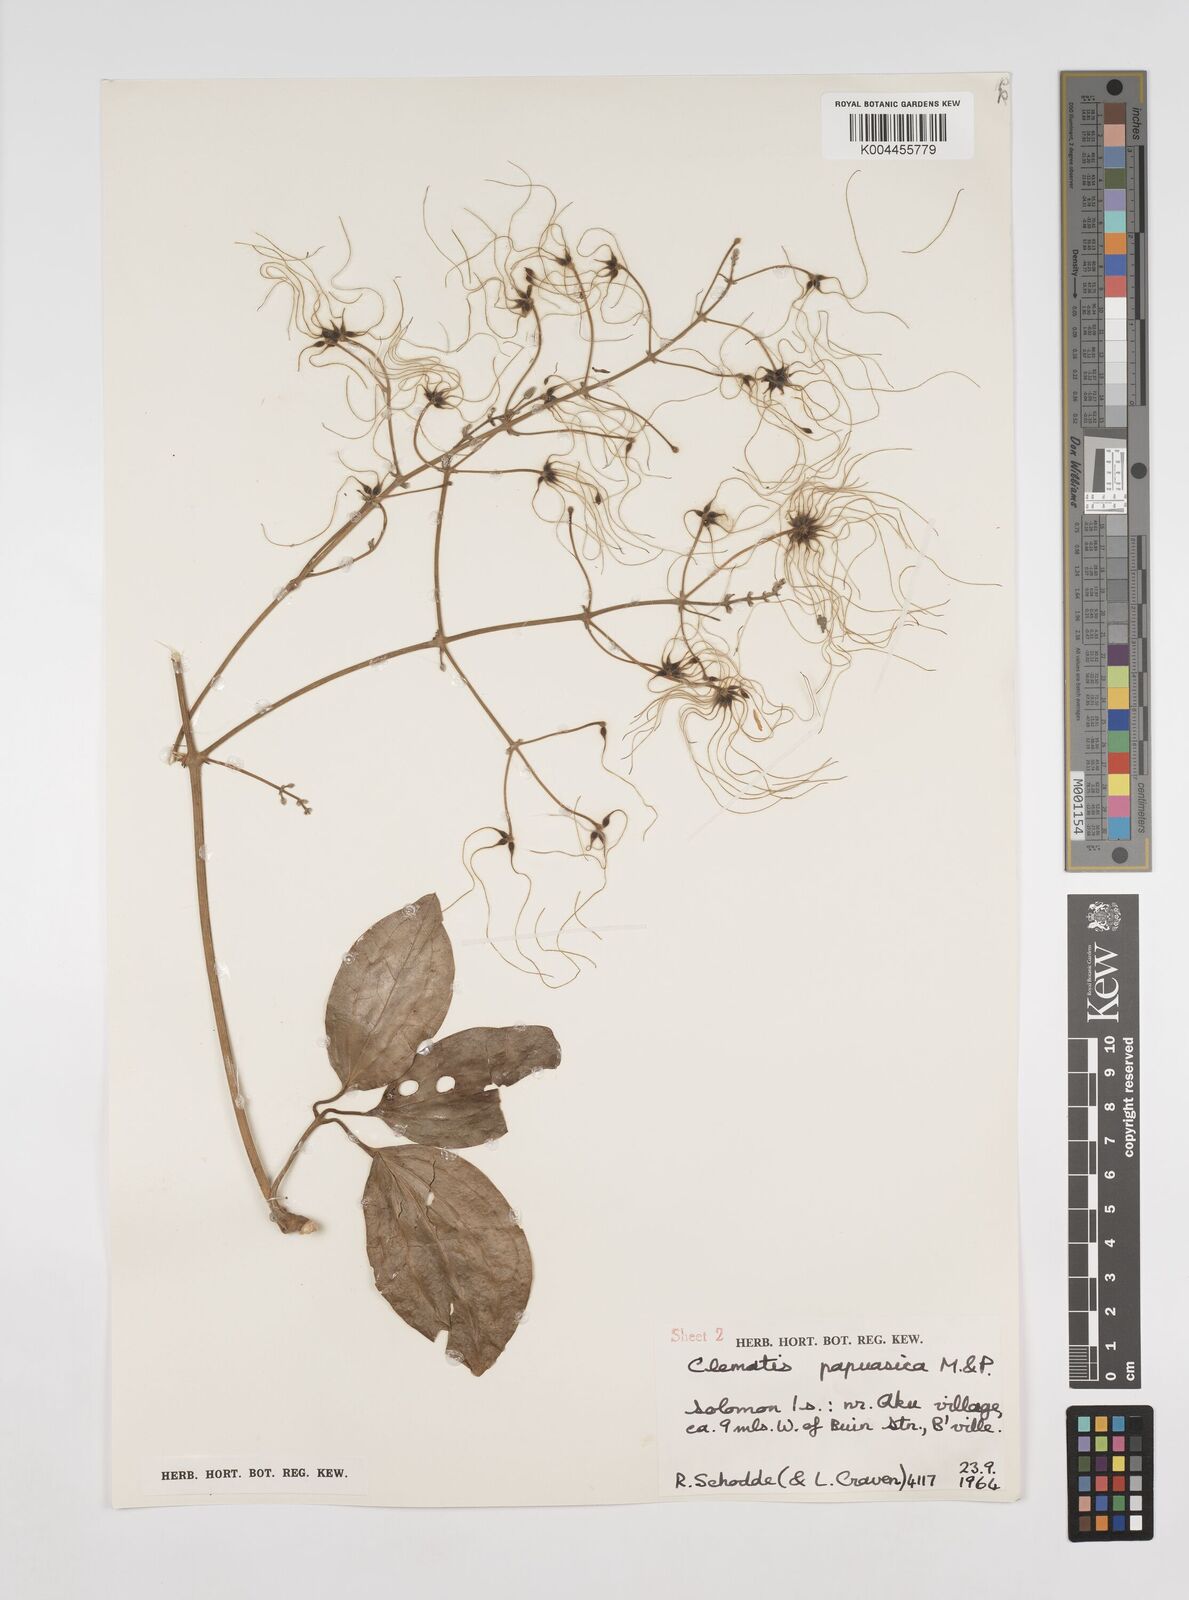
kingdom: Plantae
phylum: Tracheophyta
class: Magnoliopsida
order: Ranunculales
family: Ranunculaceae
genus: Clematis
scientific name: Clematis papuasica
